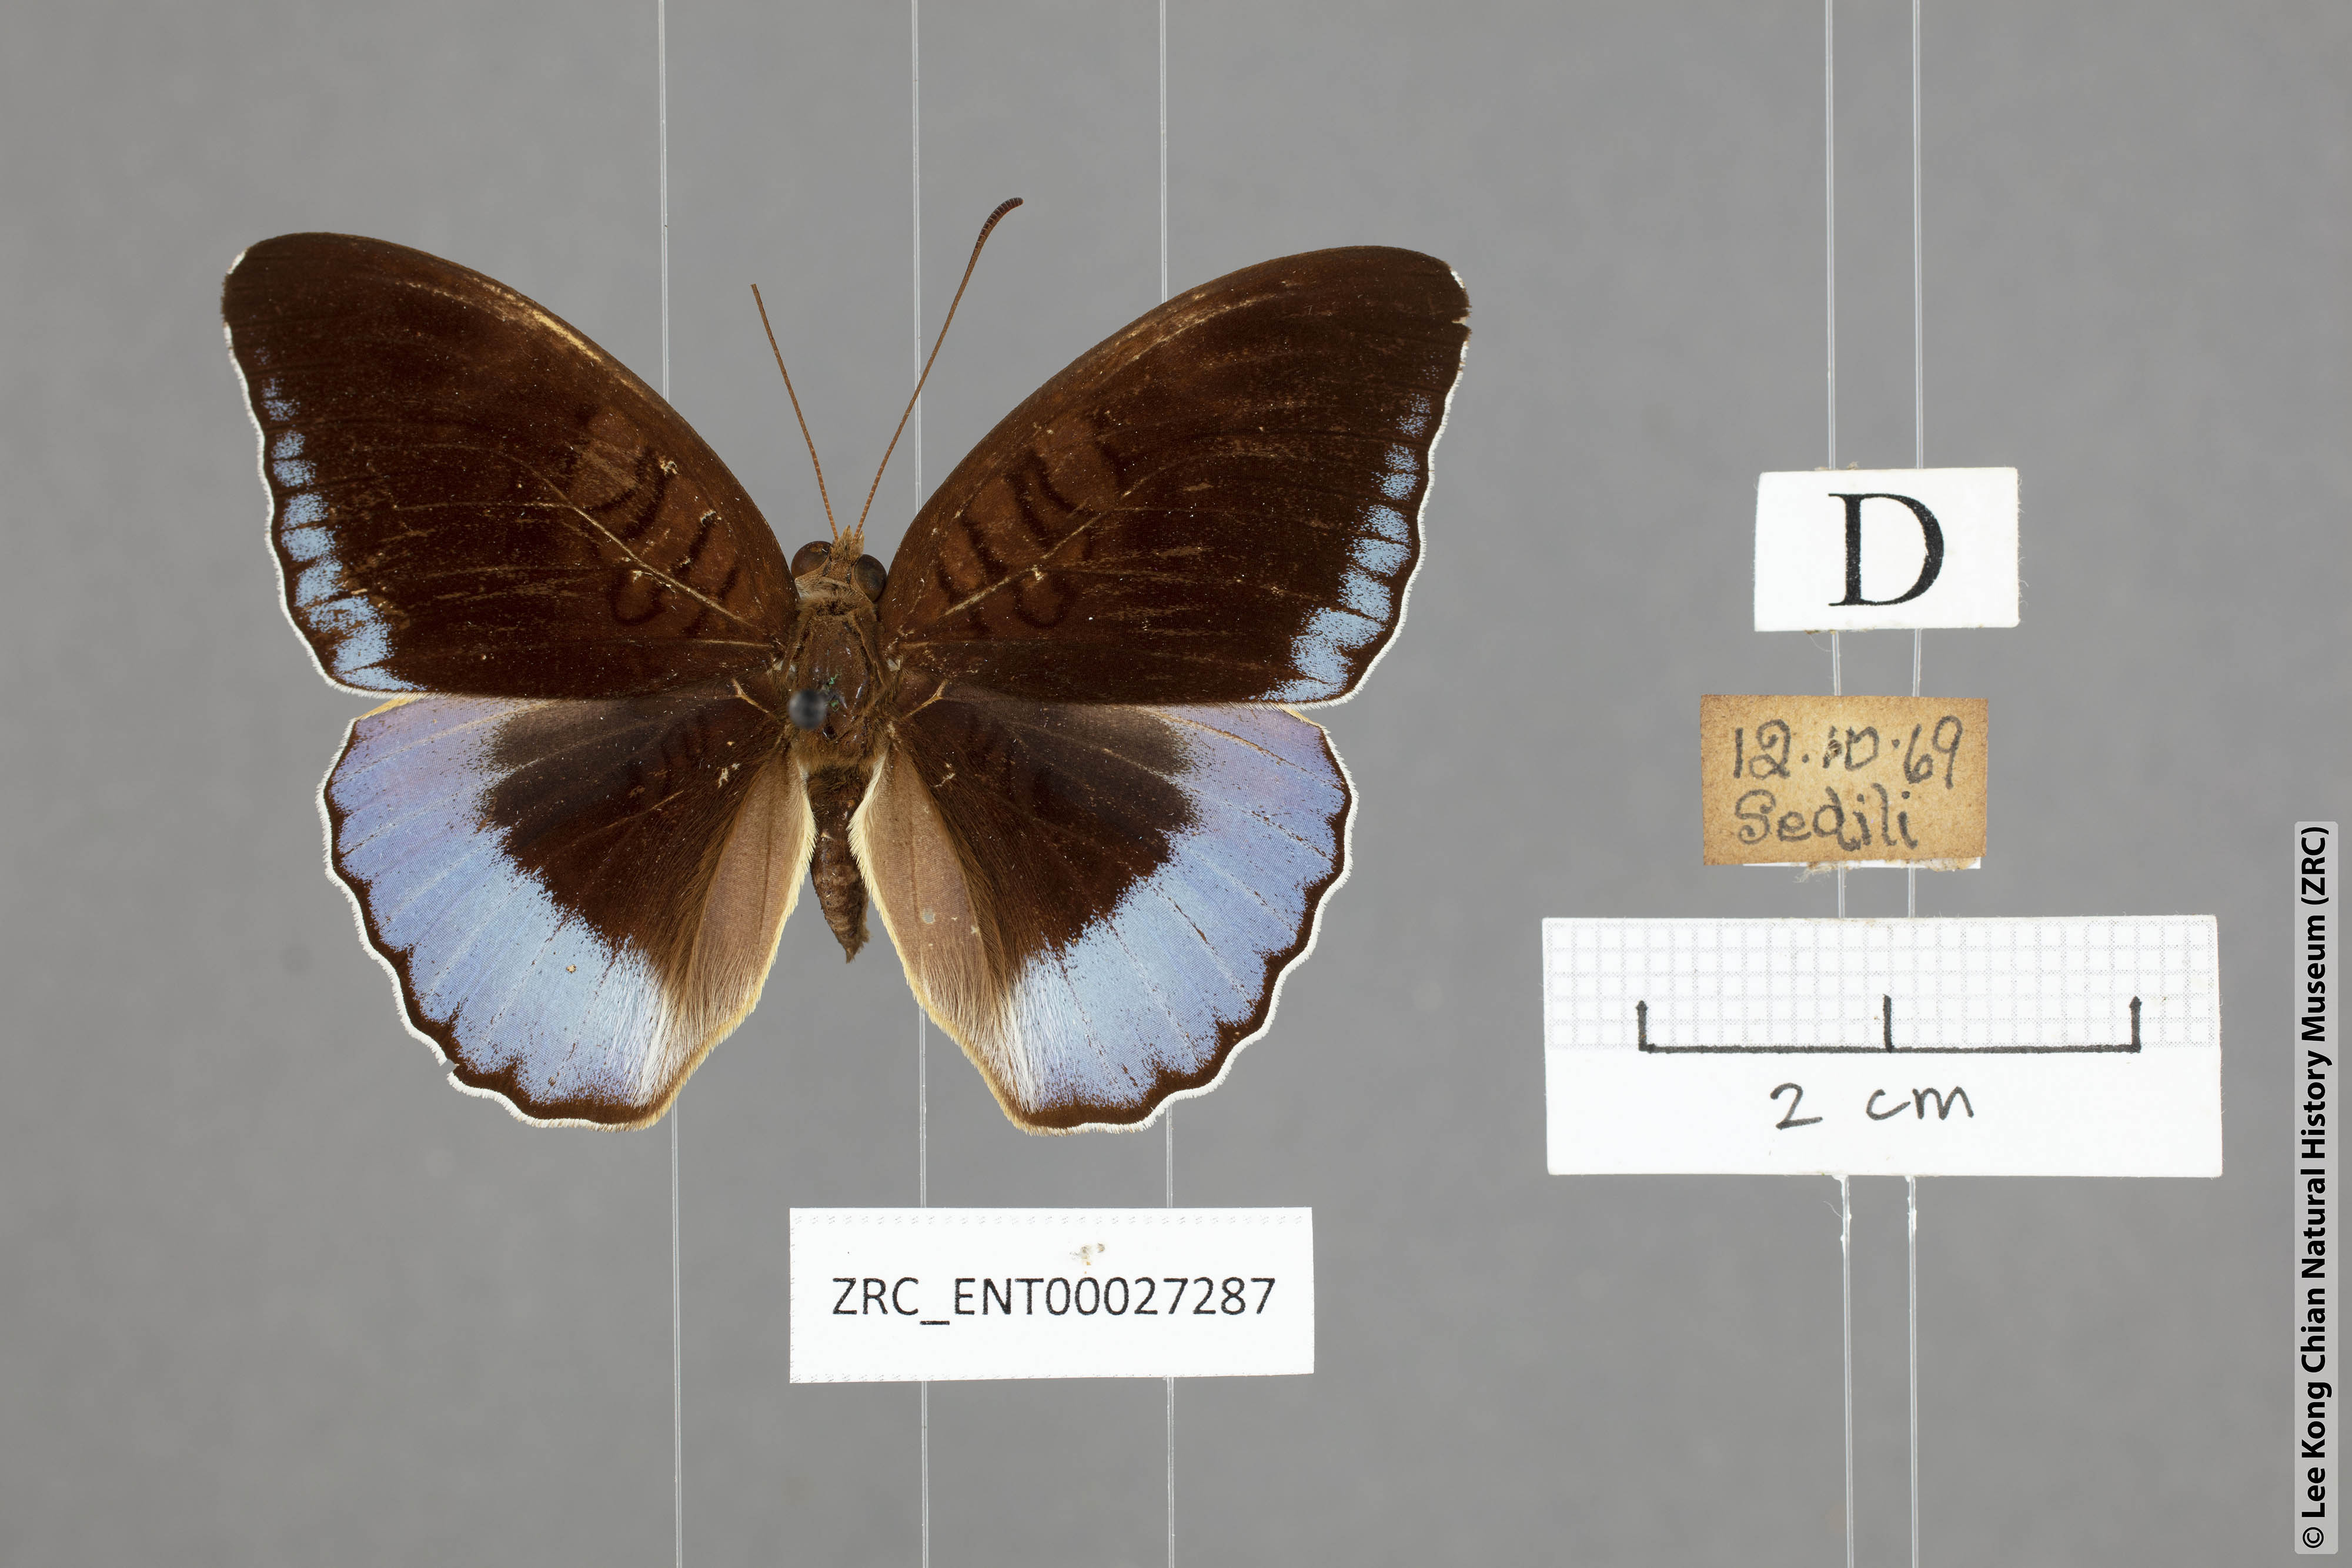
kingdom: Animalia
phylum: Arthropoda
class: Insecta
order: Lepidoptera
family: Nymphalidae
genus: Tanaecia
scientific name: Tanaecia iapis
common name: Horsfield's baron
